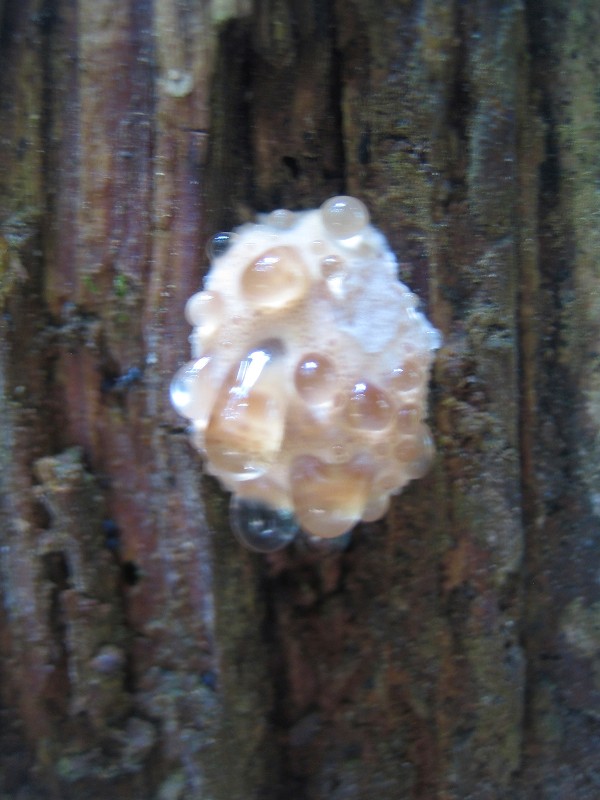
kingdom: Fungi
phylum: Basidiomycota
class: Agaricomycetes
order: Polyporales
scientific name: Polyporales
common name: poresvampordenen
